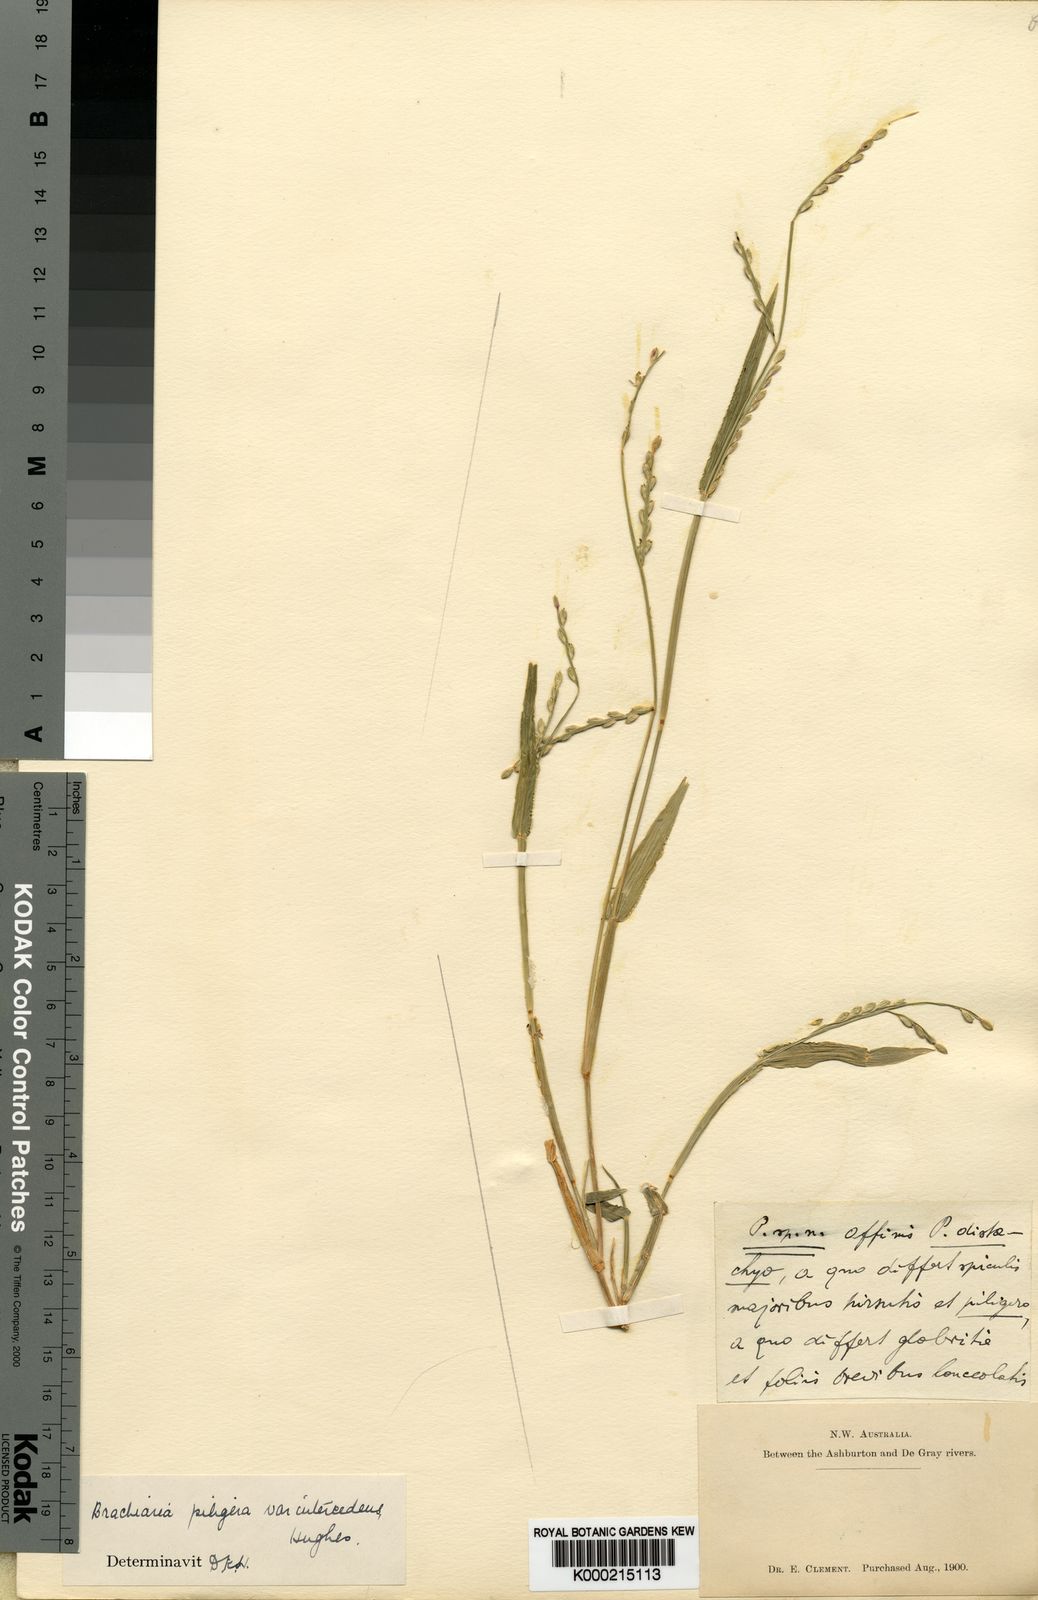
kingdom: Plantae
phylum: Tracheophyta
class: Liliopsida
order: Poales
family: Poaceae
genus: Urochloa
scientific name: Urochloa piligera
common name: Wattle signalgrass
